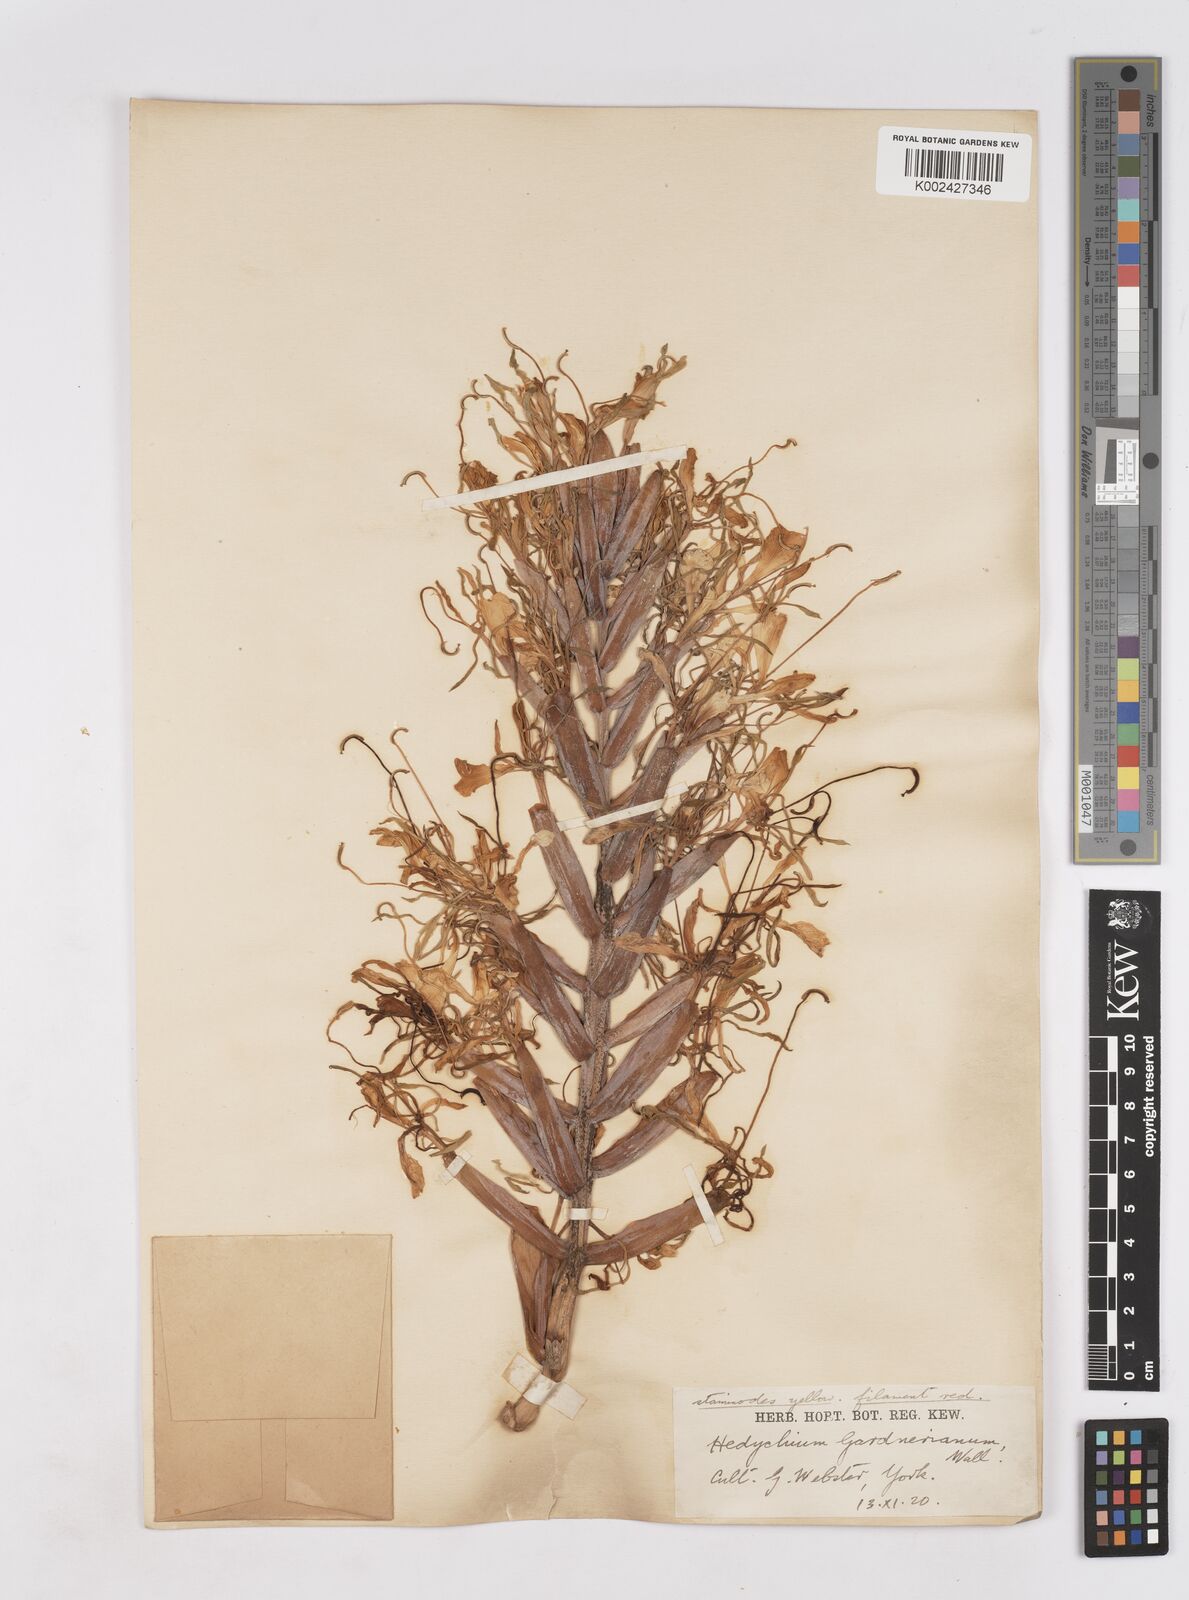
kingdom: Plantae
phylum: Tracheophyta
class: Liliopsida
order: Zingiberales
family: Zingiberaceae
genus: Hedychium
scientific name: Hedychium gardnerianum
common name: Himalayan ginger
